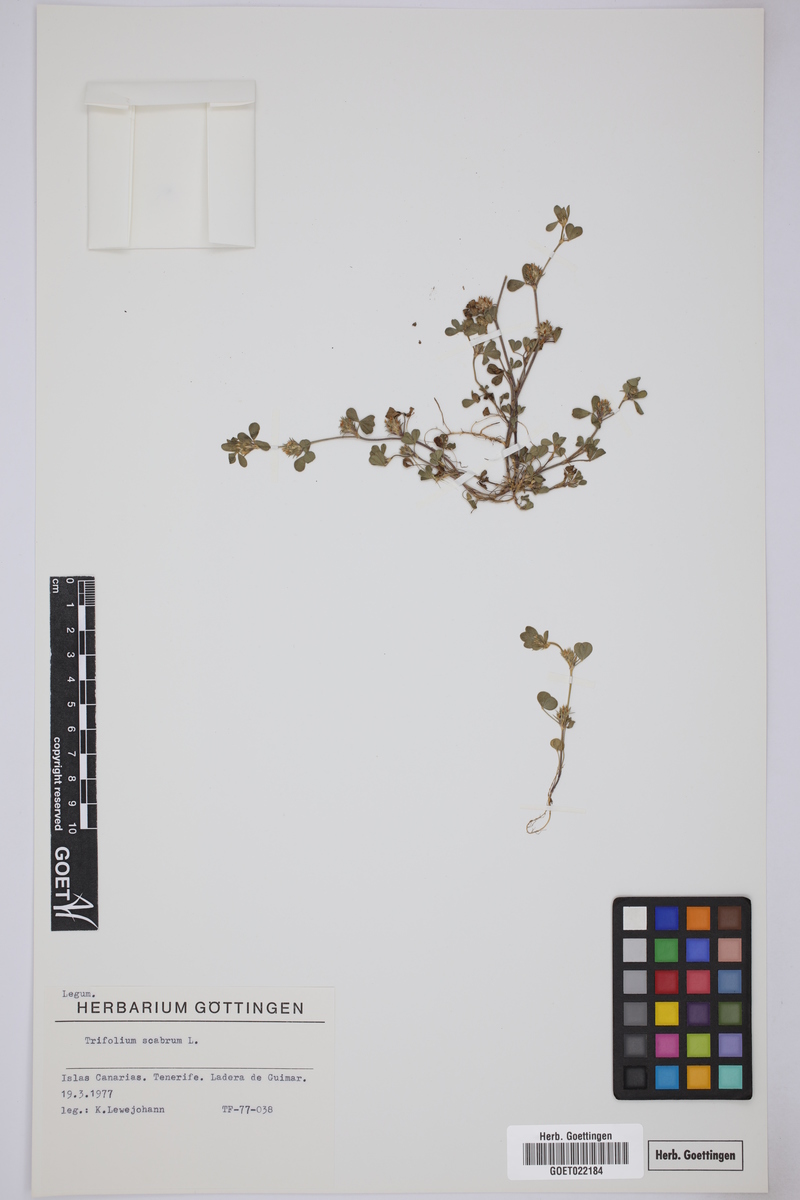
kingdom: Plantae
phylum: Tracheophyta
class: Magnoliopsida
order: Fabales
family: Fabaceae
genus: Trifolium
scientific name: Trifolium scabrum
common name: Rough clover
